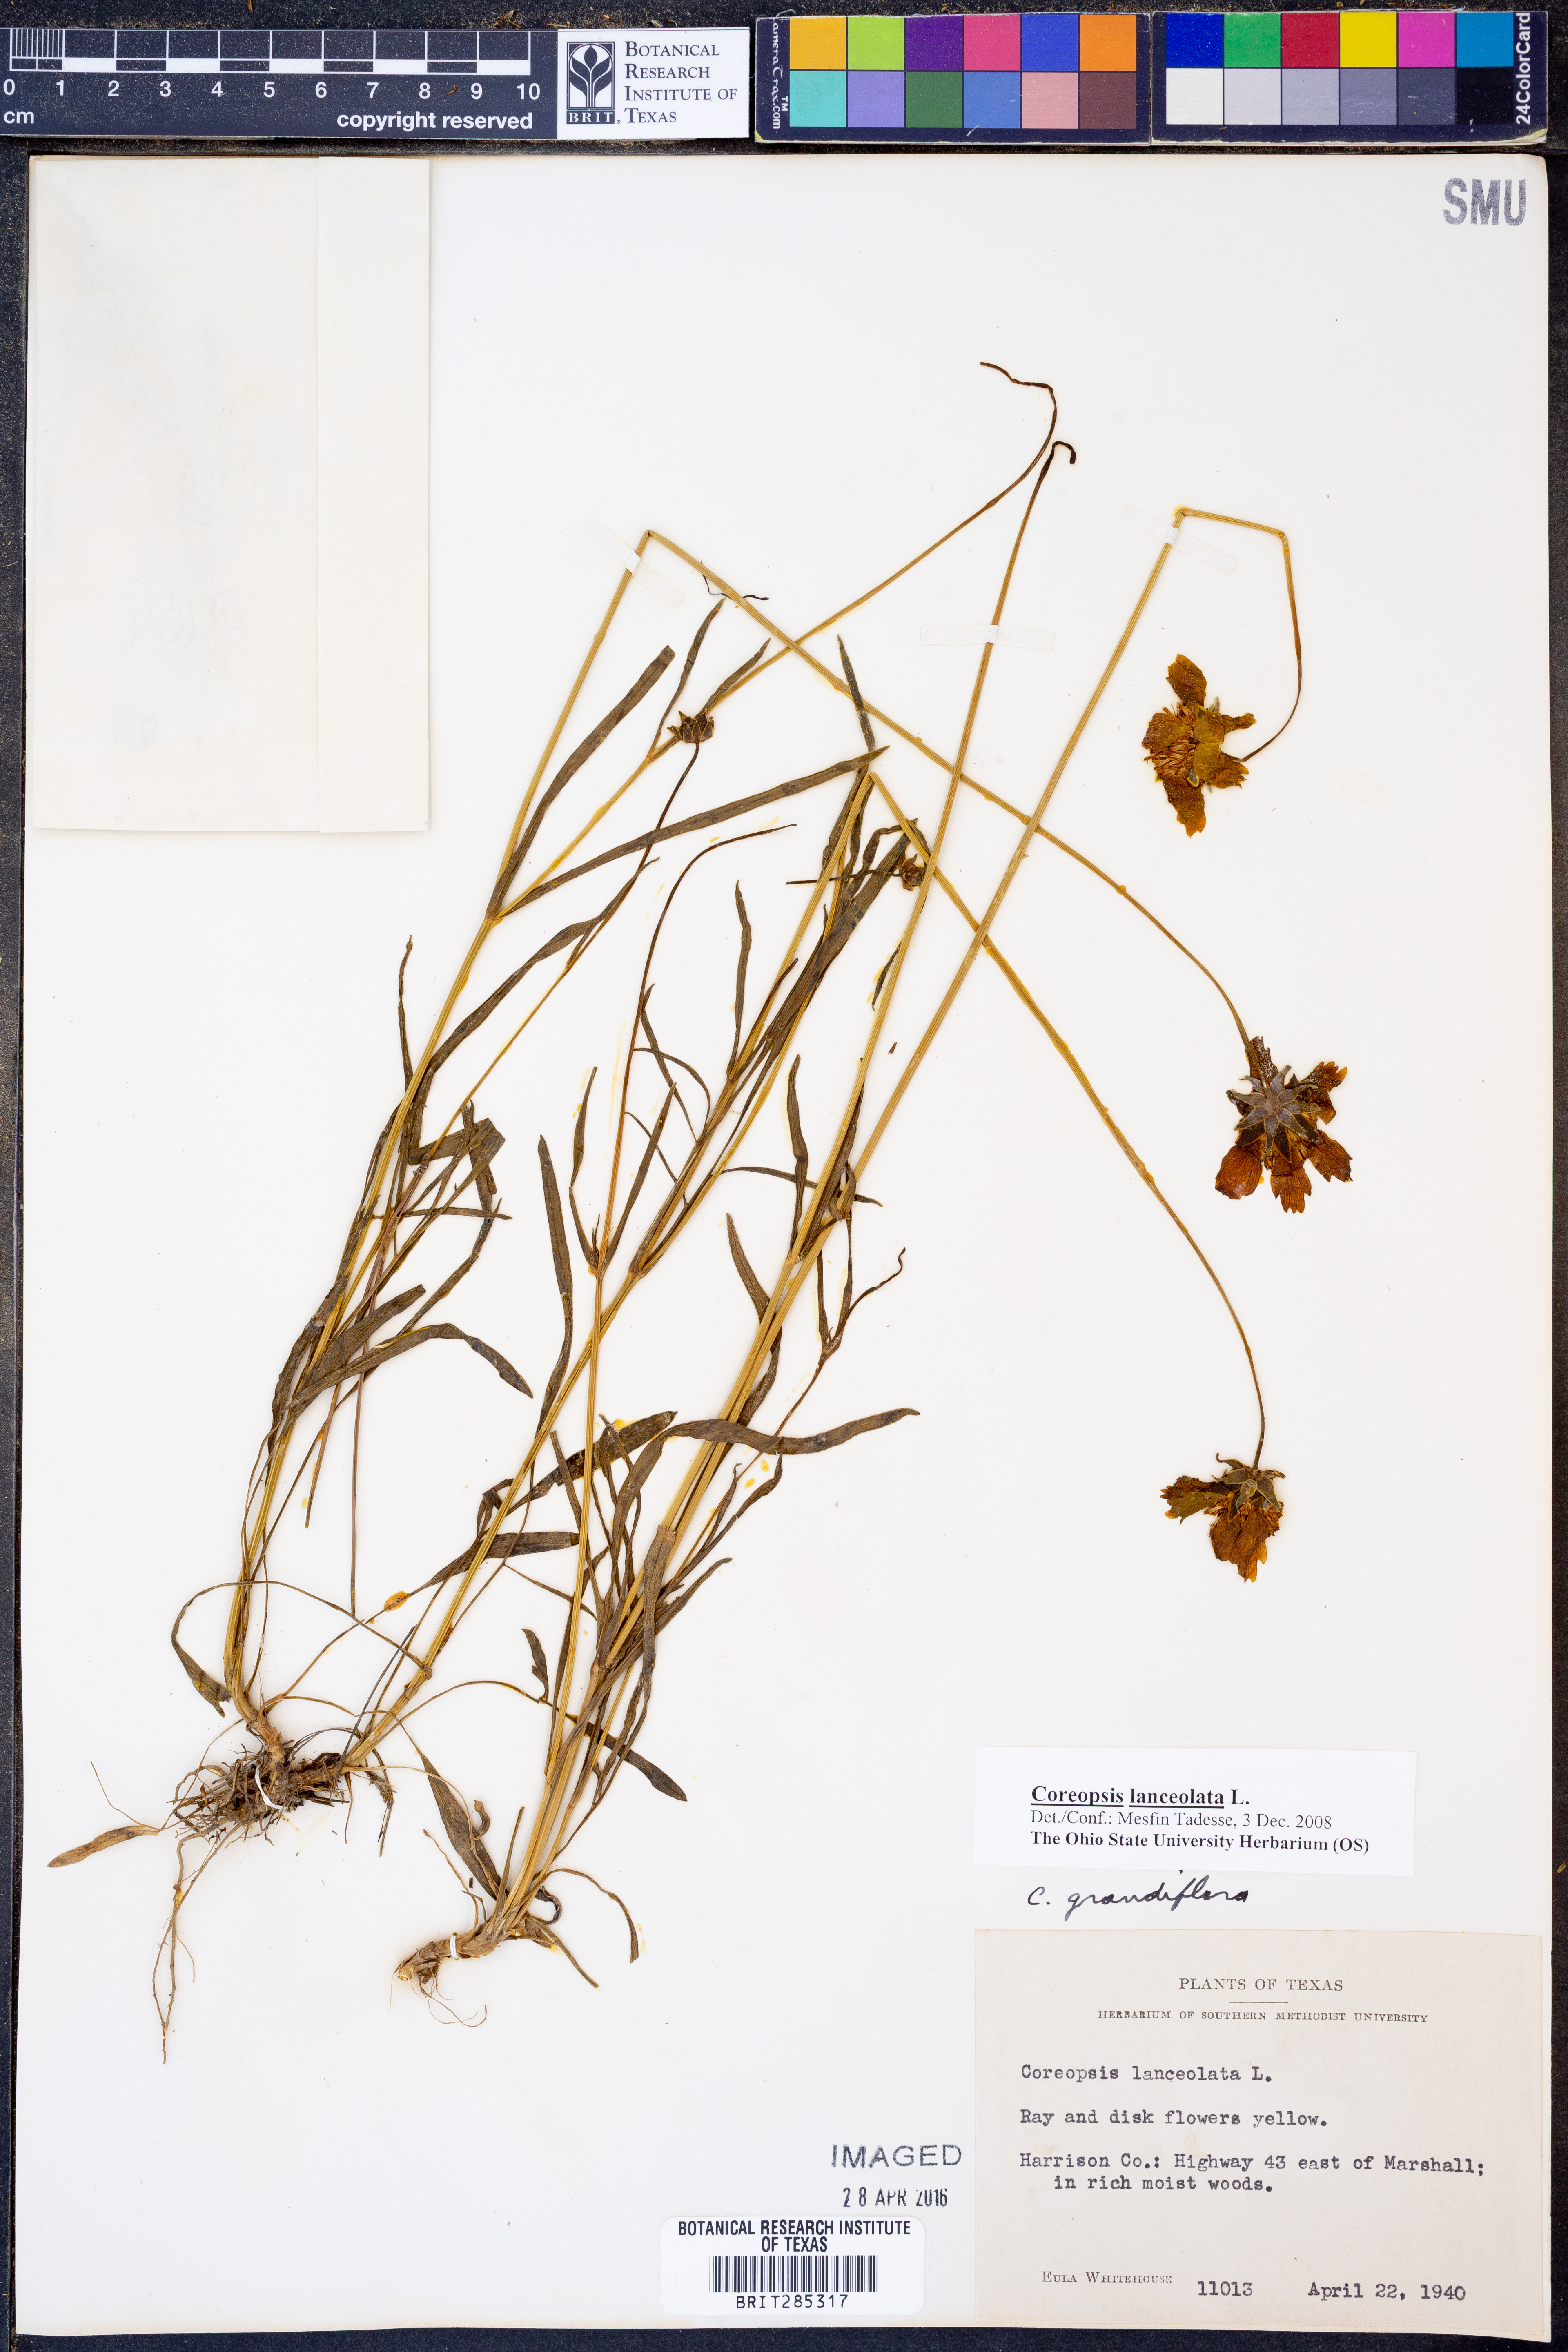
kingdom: Plantae
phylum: Tracheophyta
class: Magnoliopsida
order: Asterales
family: Asteraceae
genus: Coreopsis
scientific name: Coreopsis lanceolata
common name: Garden coreopsis
